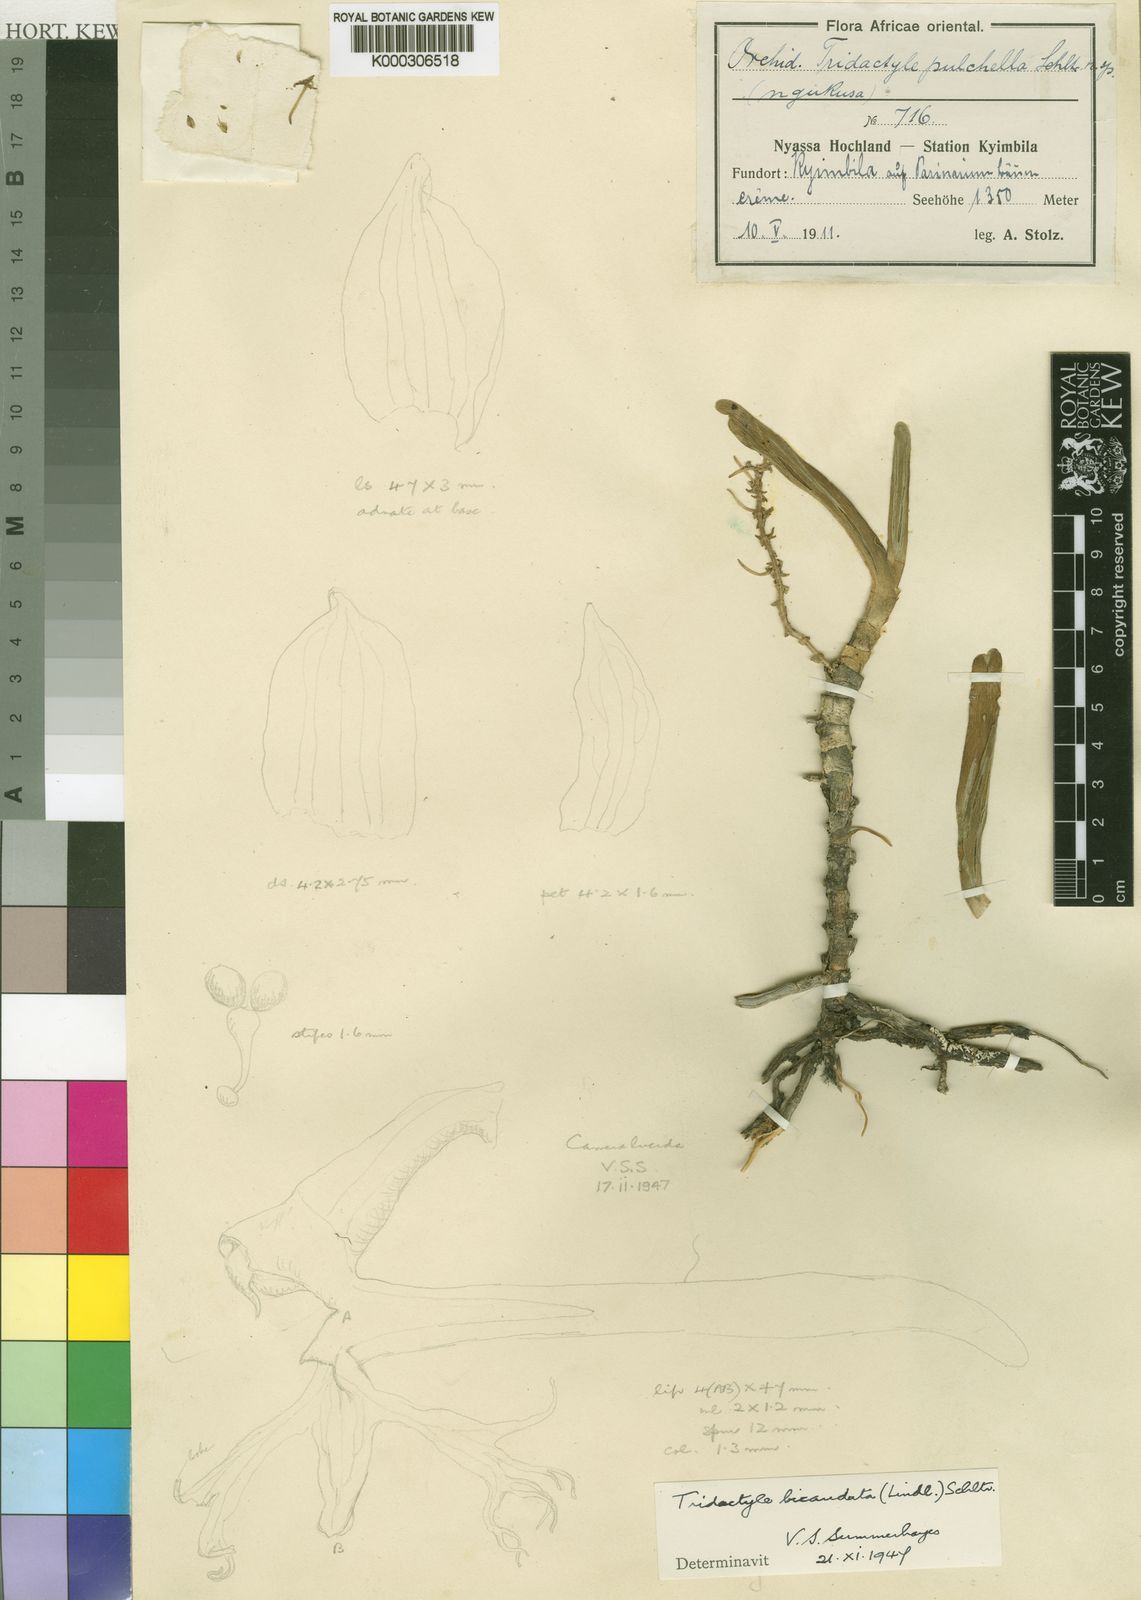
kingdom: Plantae
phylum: Tracheophyta
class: Liliopsida
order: Asparagales
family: Orchidaceae
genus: Tridactyle
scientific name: Tridactyle bicaudata
